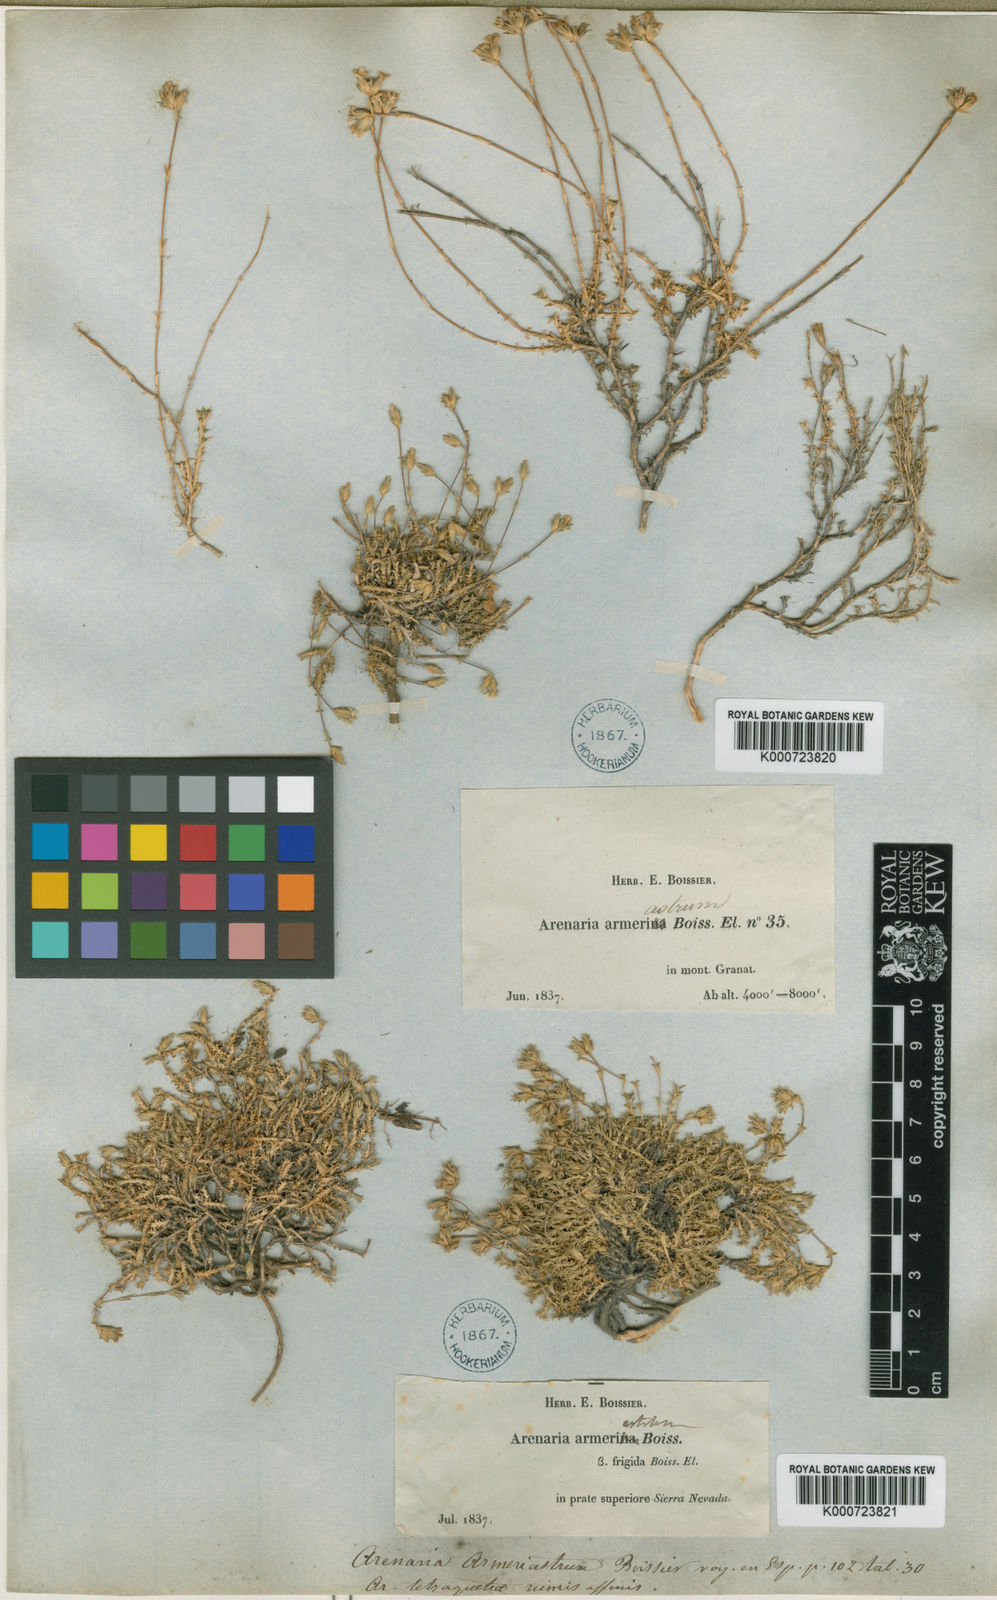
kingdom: Plantae
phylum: Tracheophyta
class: Magnoliopsida
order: Caryophyllales
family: Caryophyllaceae
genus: Arenaria
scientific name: Arenaria armerina
